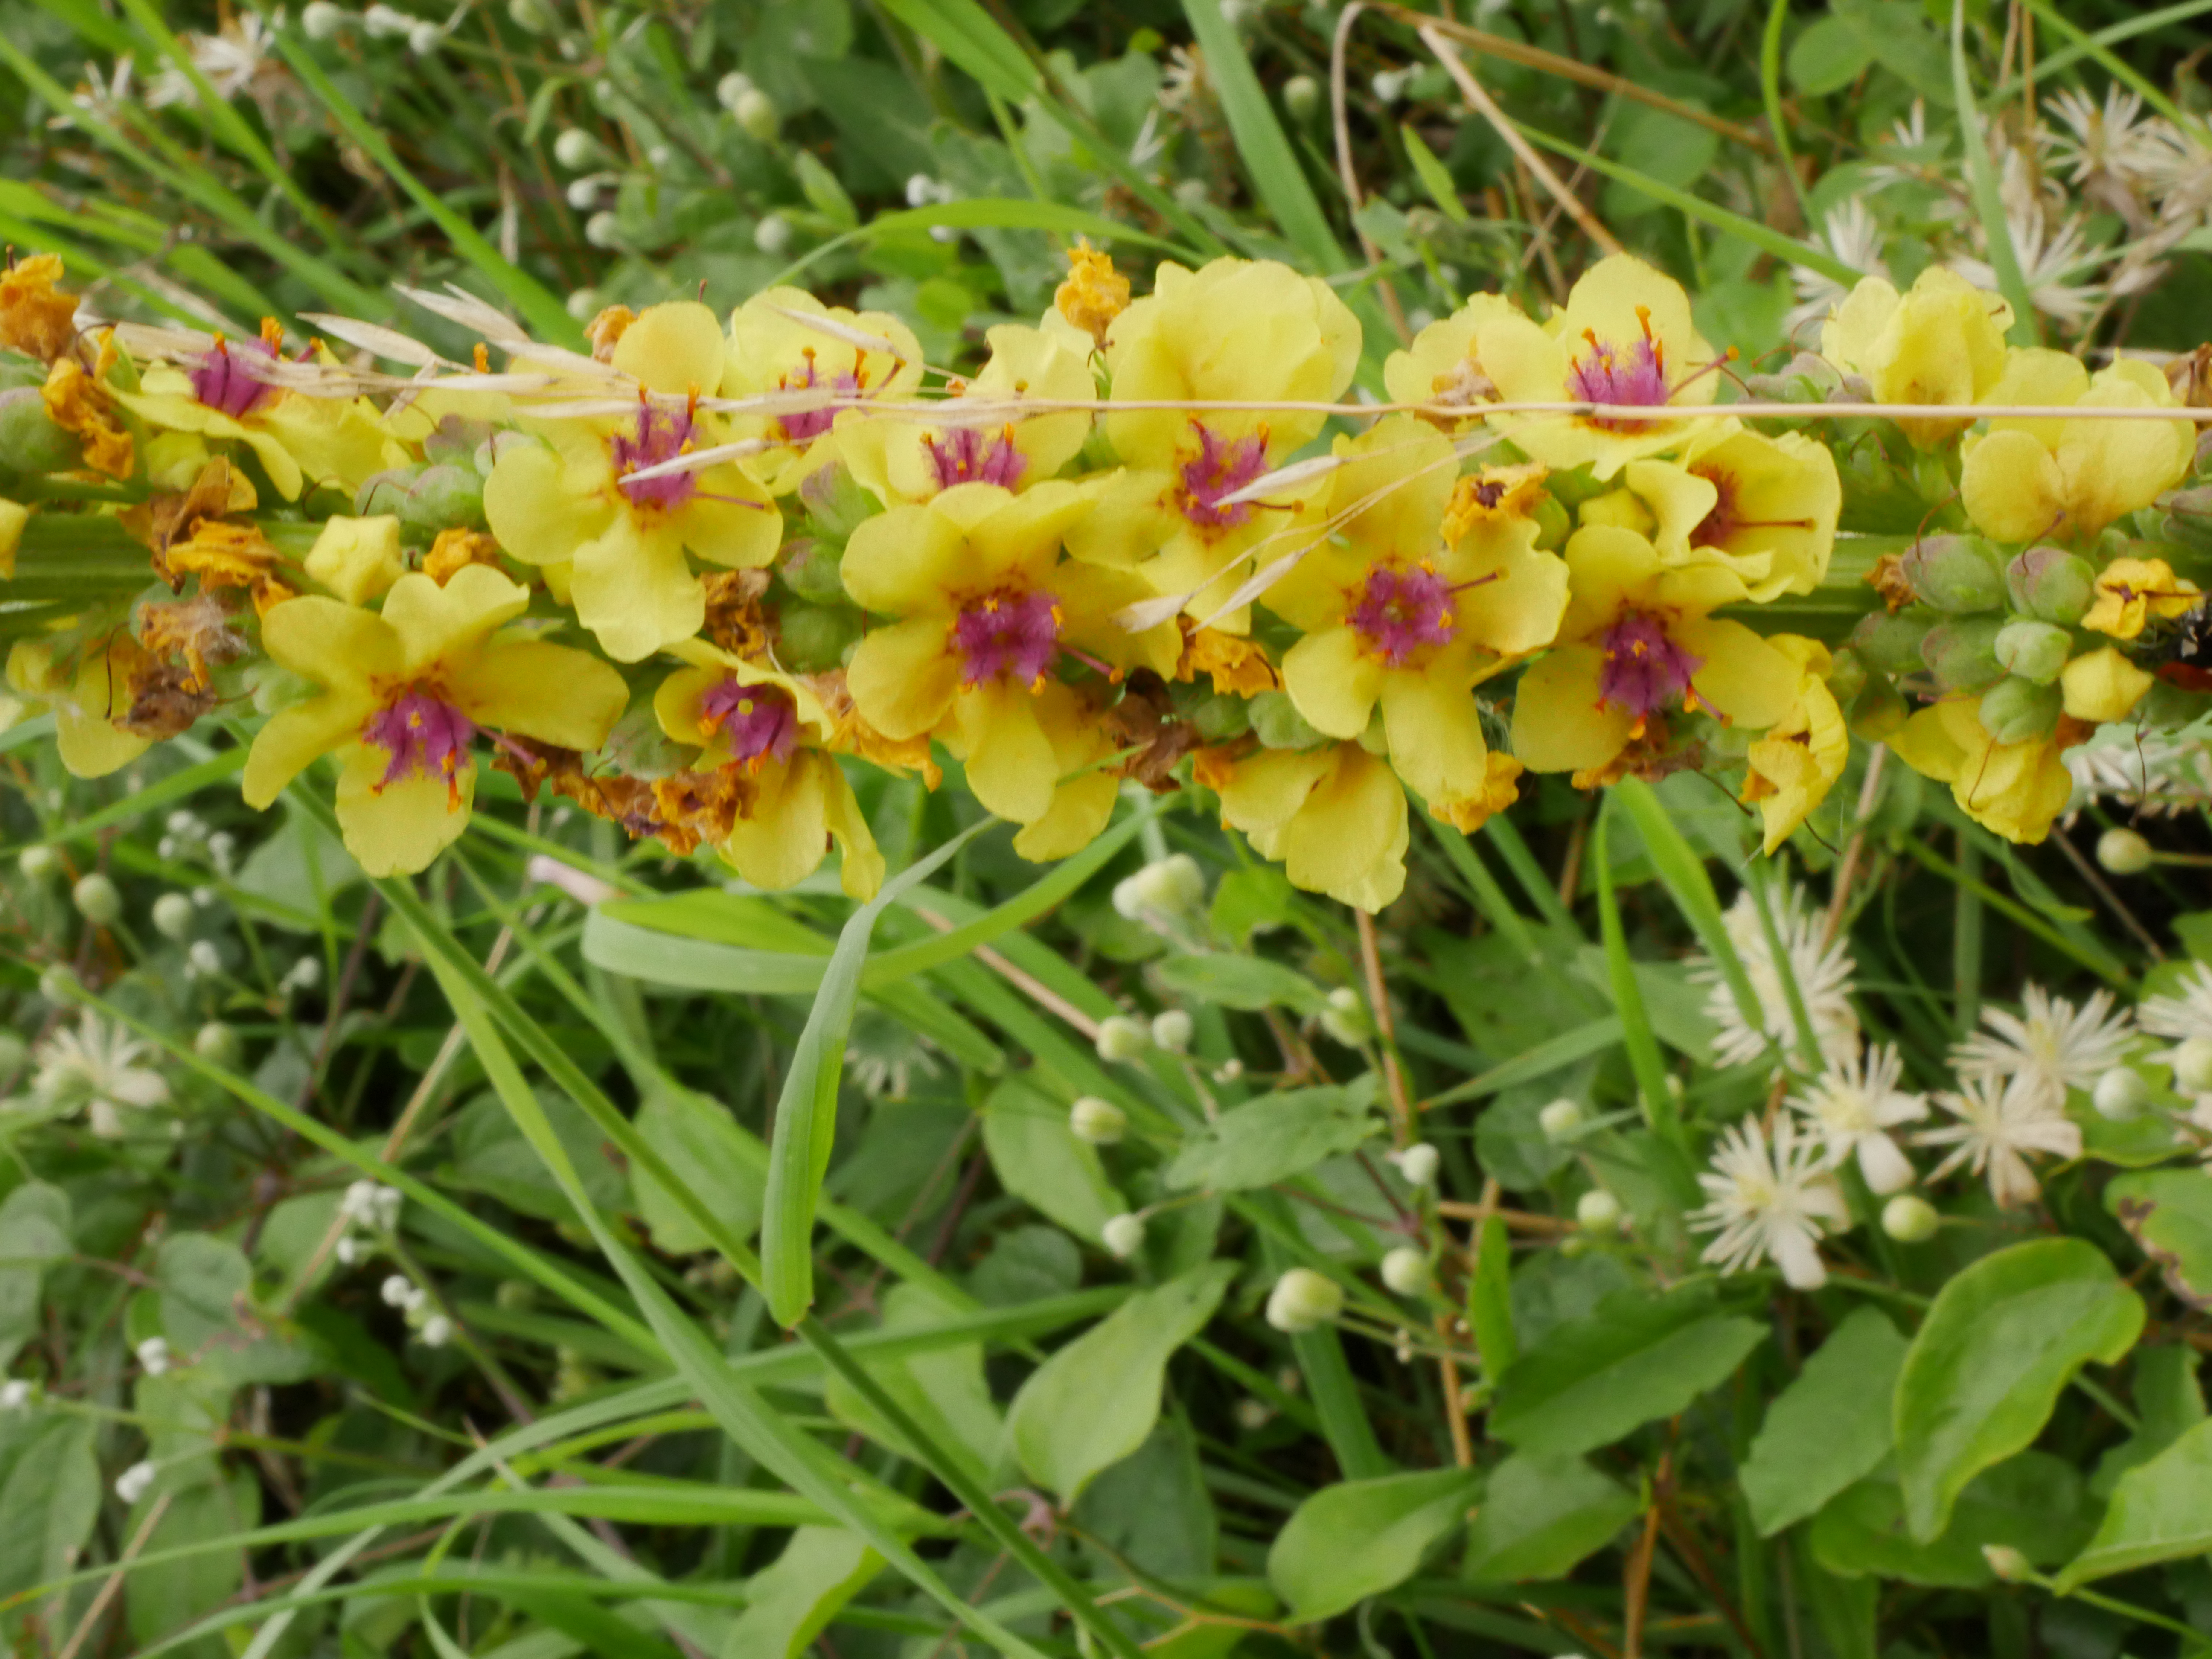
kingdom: Plantae
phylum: Tracheophyta
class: Magnoliopsida
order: Lamiales
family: Scrophulariaceae
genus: Verbascum
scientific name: Verbascum nigrum
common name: Mørk kongelys
